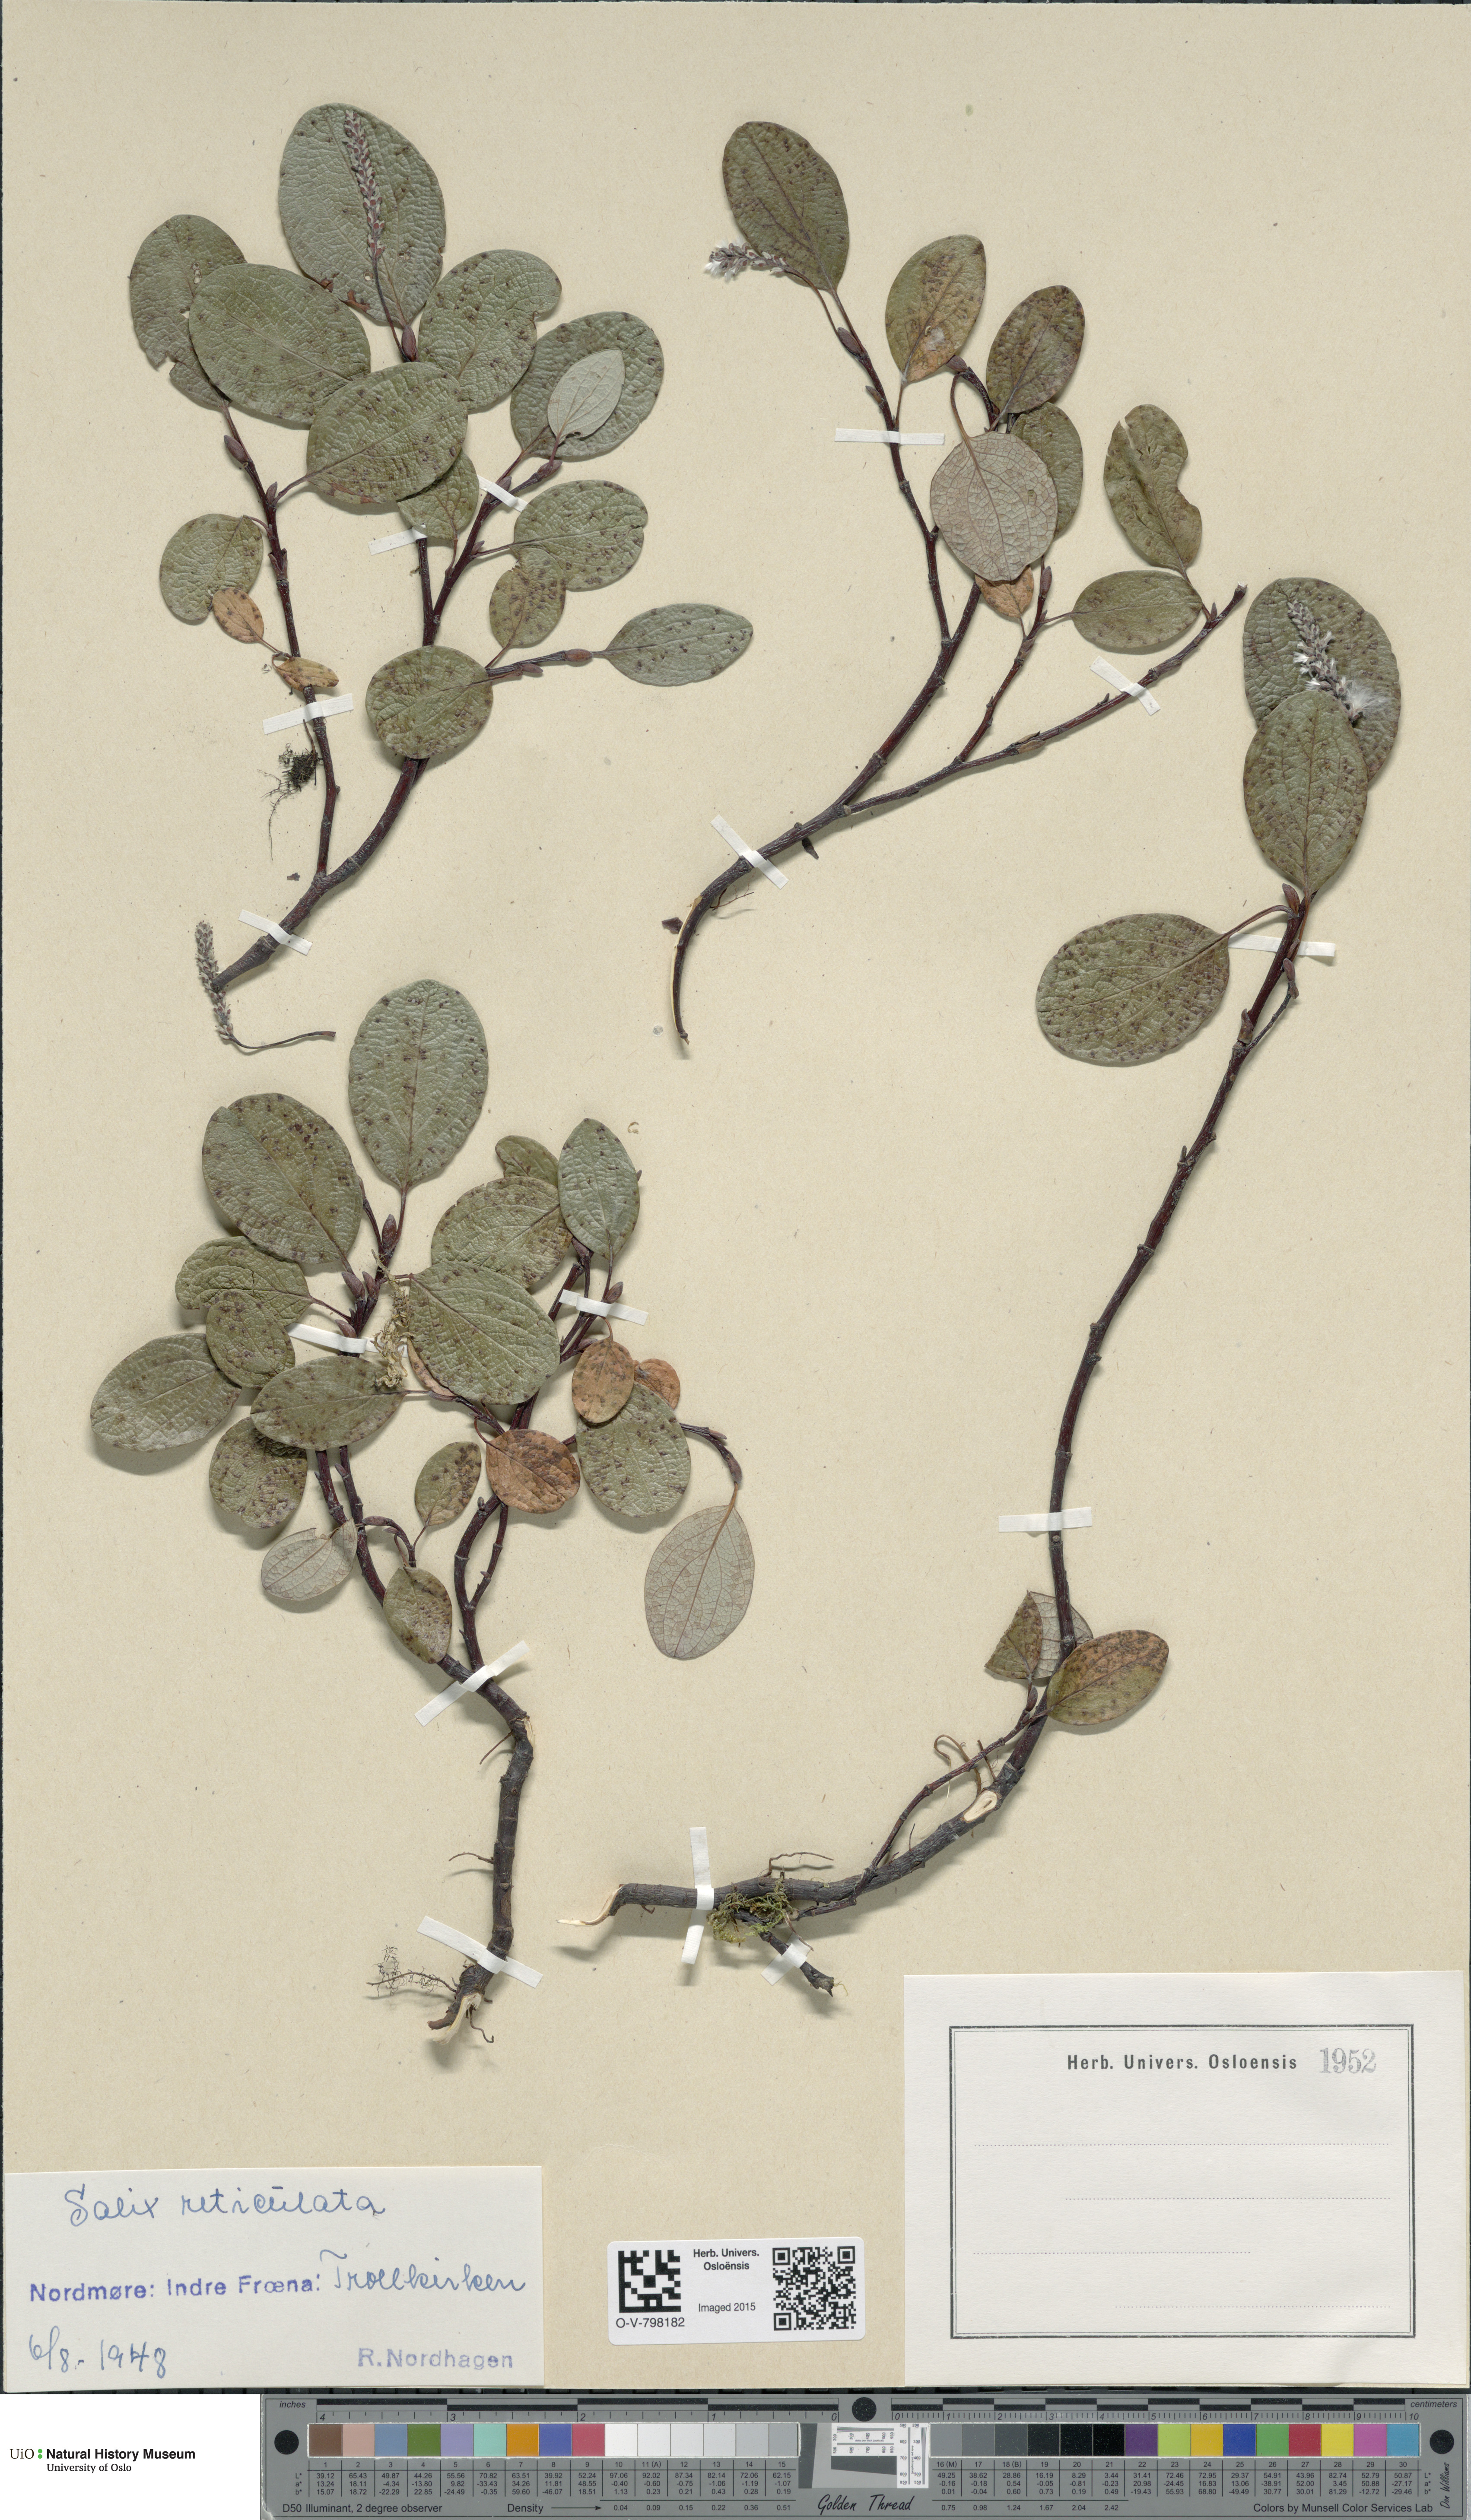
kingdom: Plantae
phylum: Tracheophyta
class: Magnoliopsida
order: Malpighiales
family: Salicaceae
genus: Salix
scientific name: Salix reticulata
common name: Net-leaved willow
